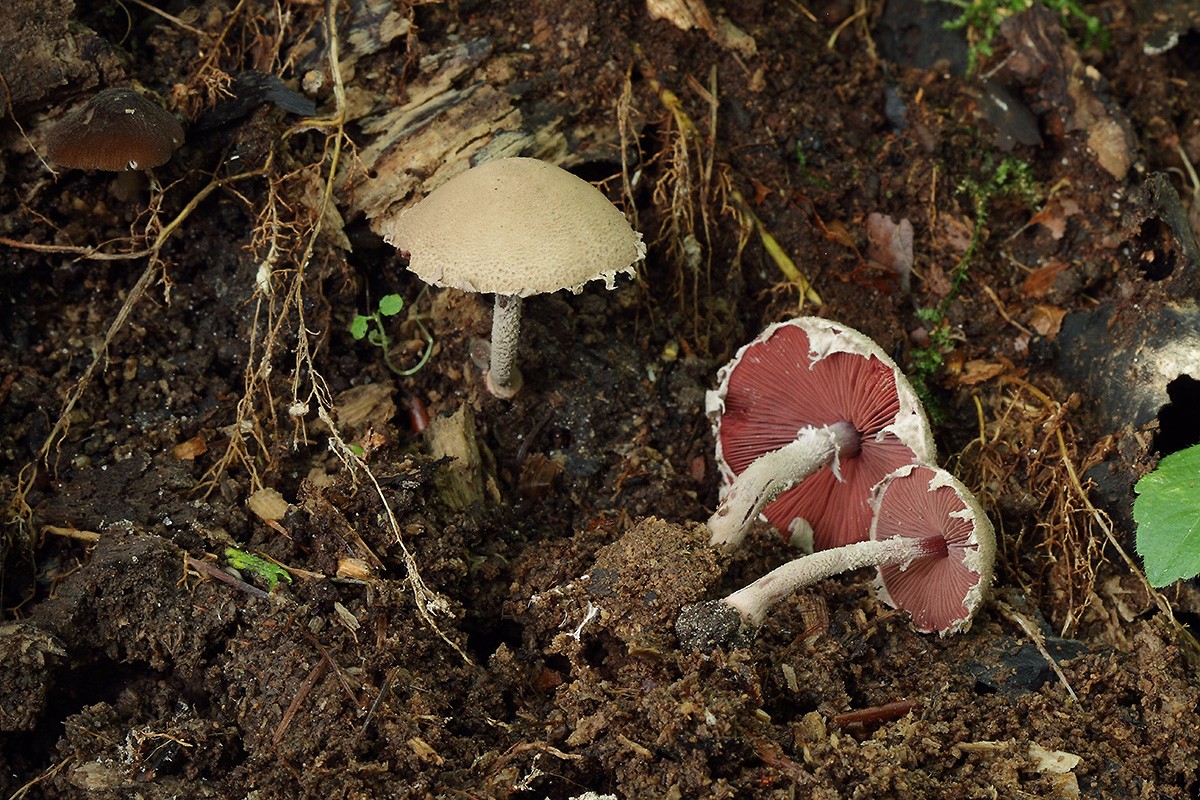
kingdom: Fungi
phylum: Basidiomycota
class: Agaricomycetes
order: Agaricales
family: Agaricaceae
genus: Melanophyllum
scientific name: Melanophyllum haematospermum
